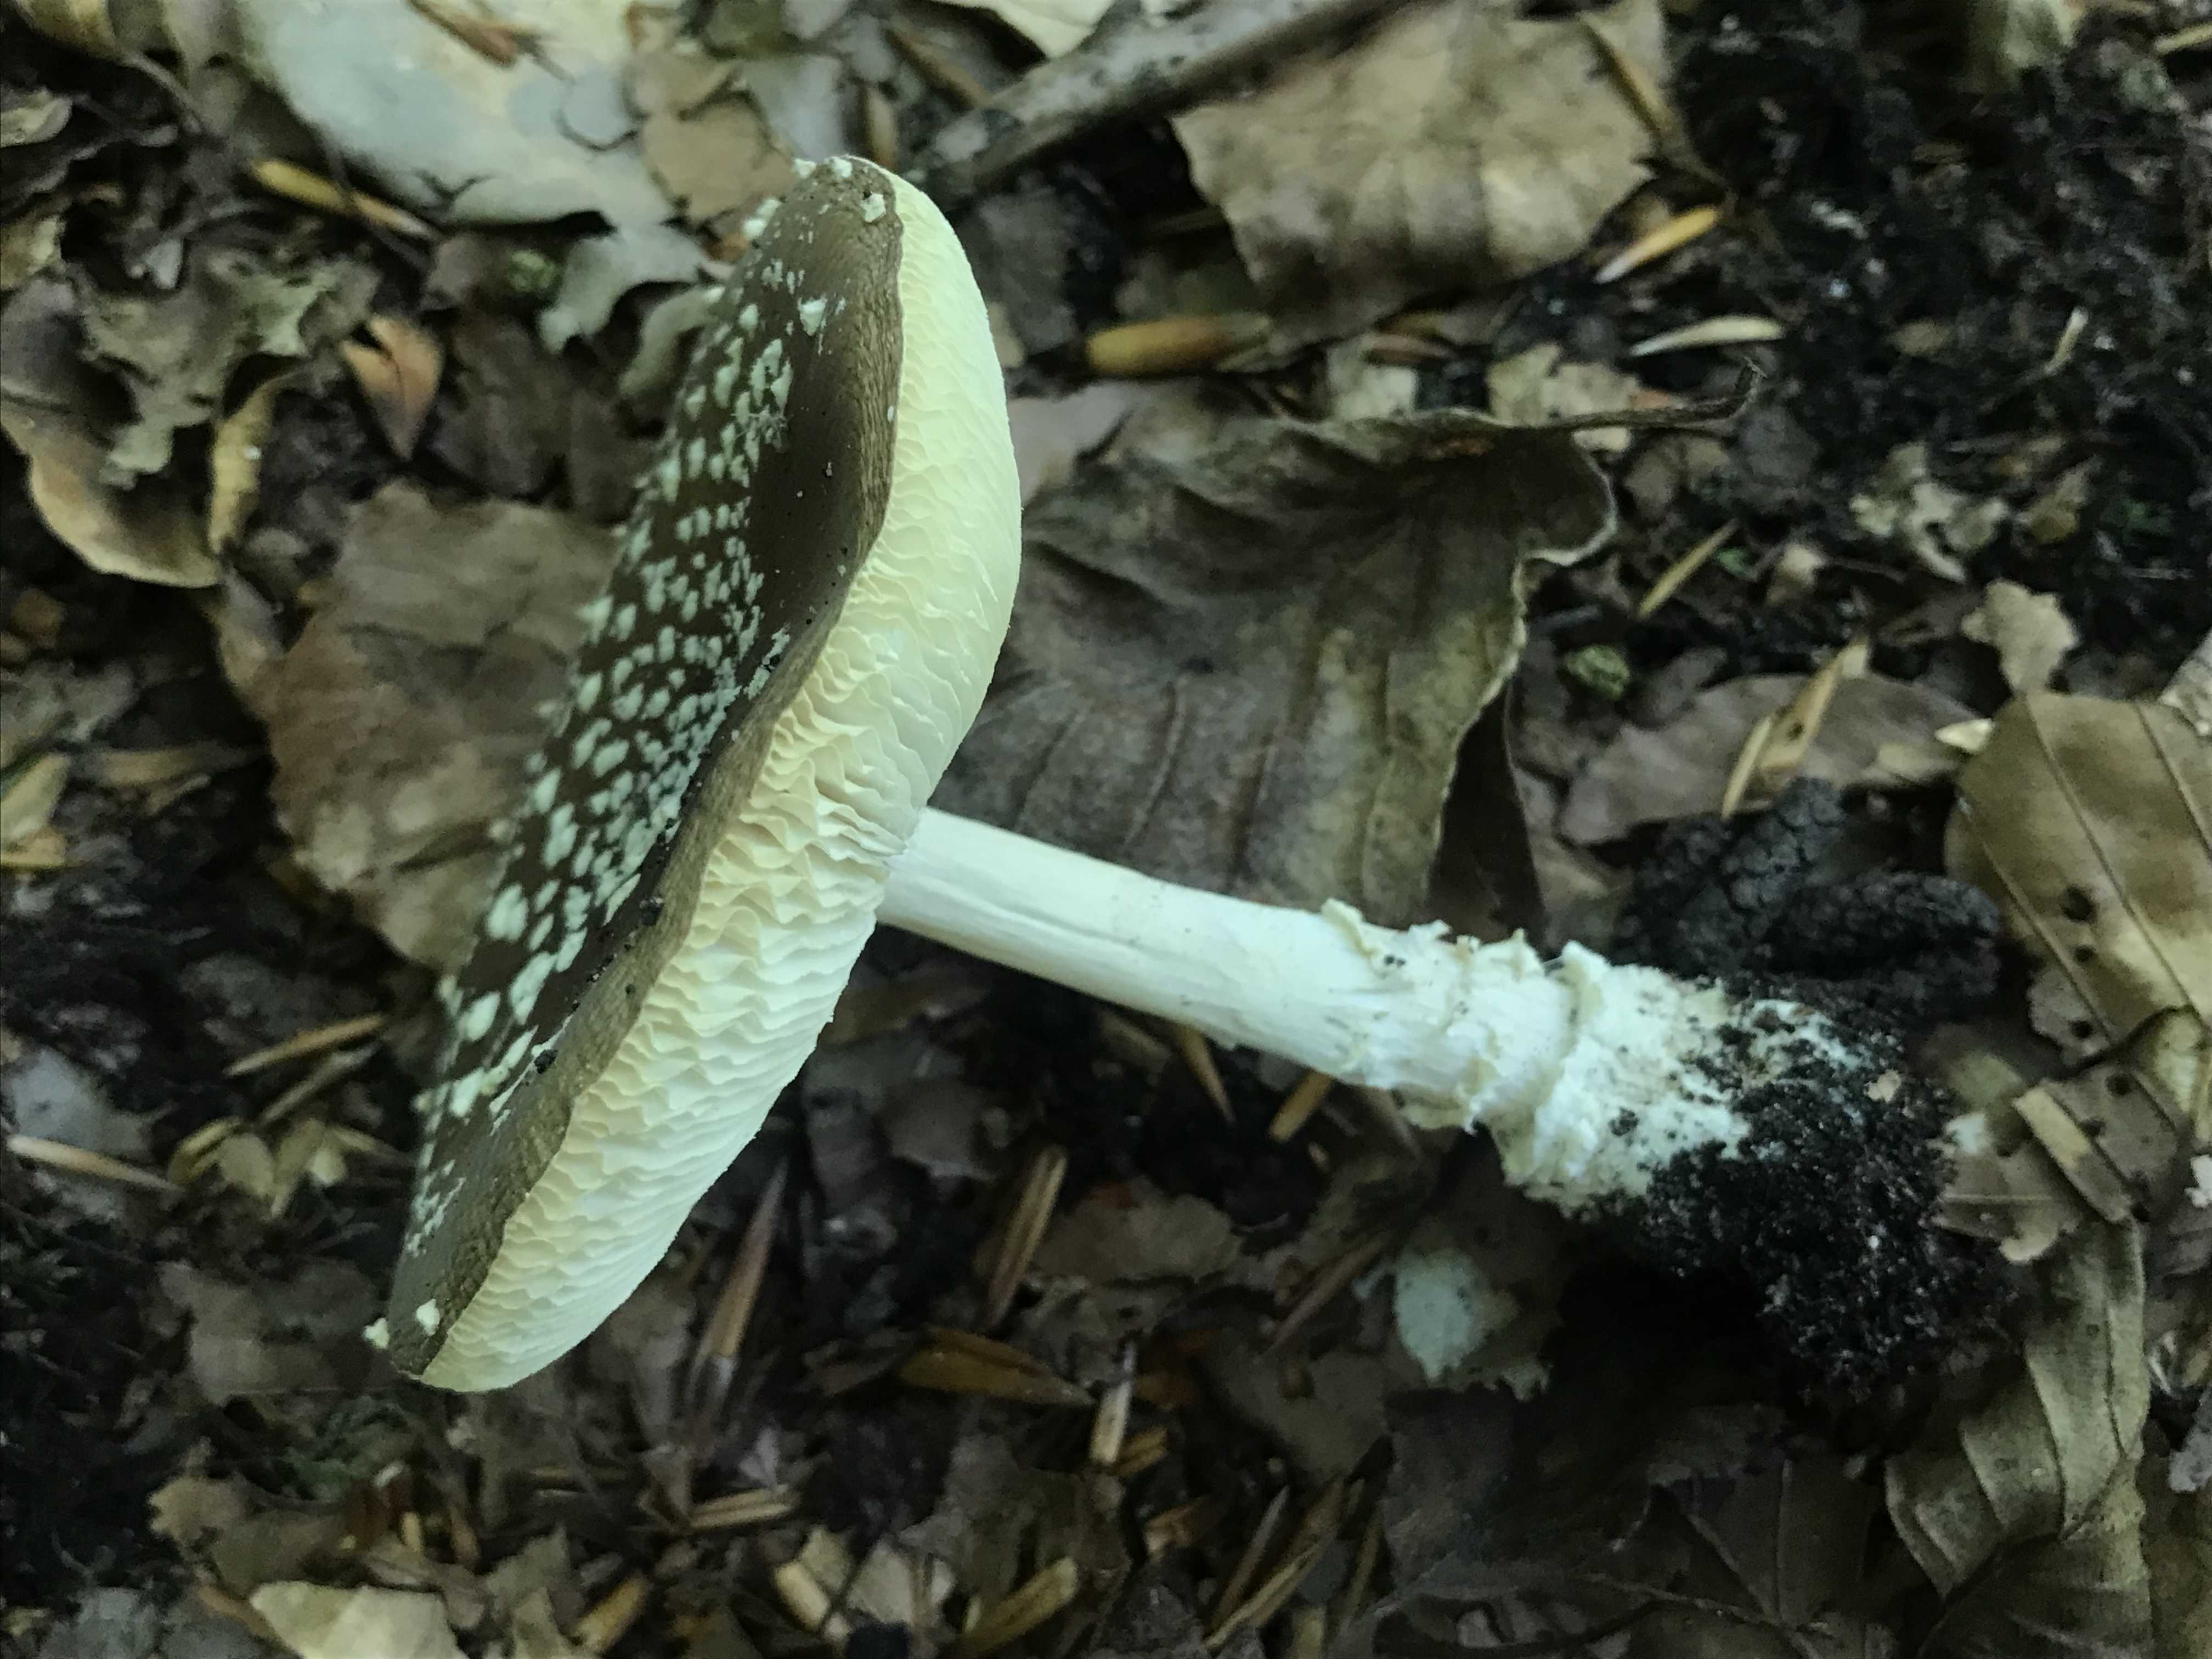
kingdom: Fungi
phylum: Basidiomycota
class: Agaricomycetes
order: Agaricales
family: Amanitaceae
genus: Amanita
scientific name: Amanita pantherina
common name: panter-fluesvamp
